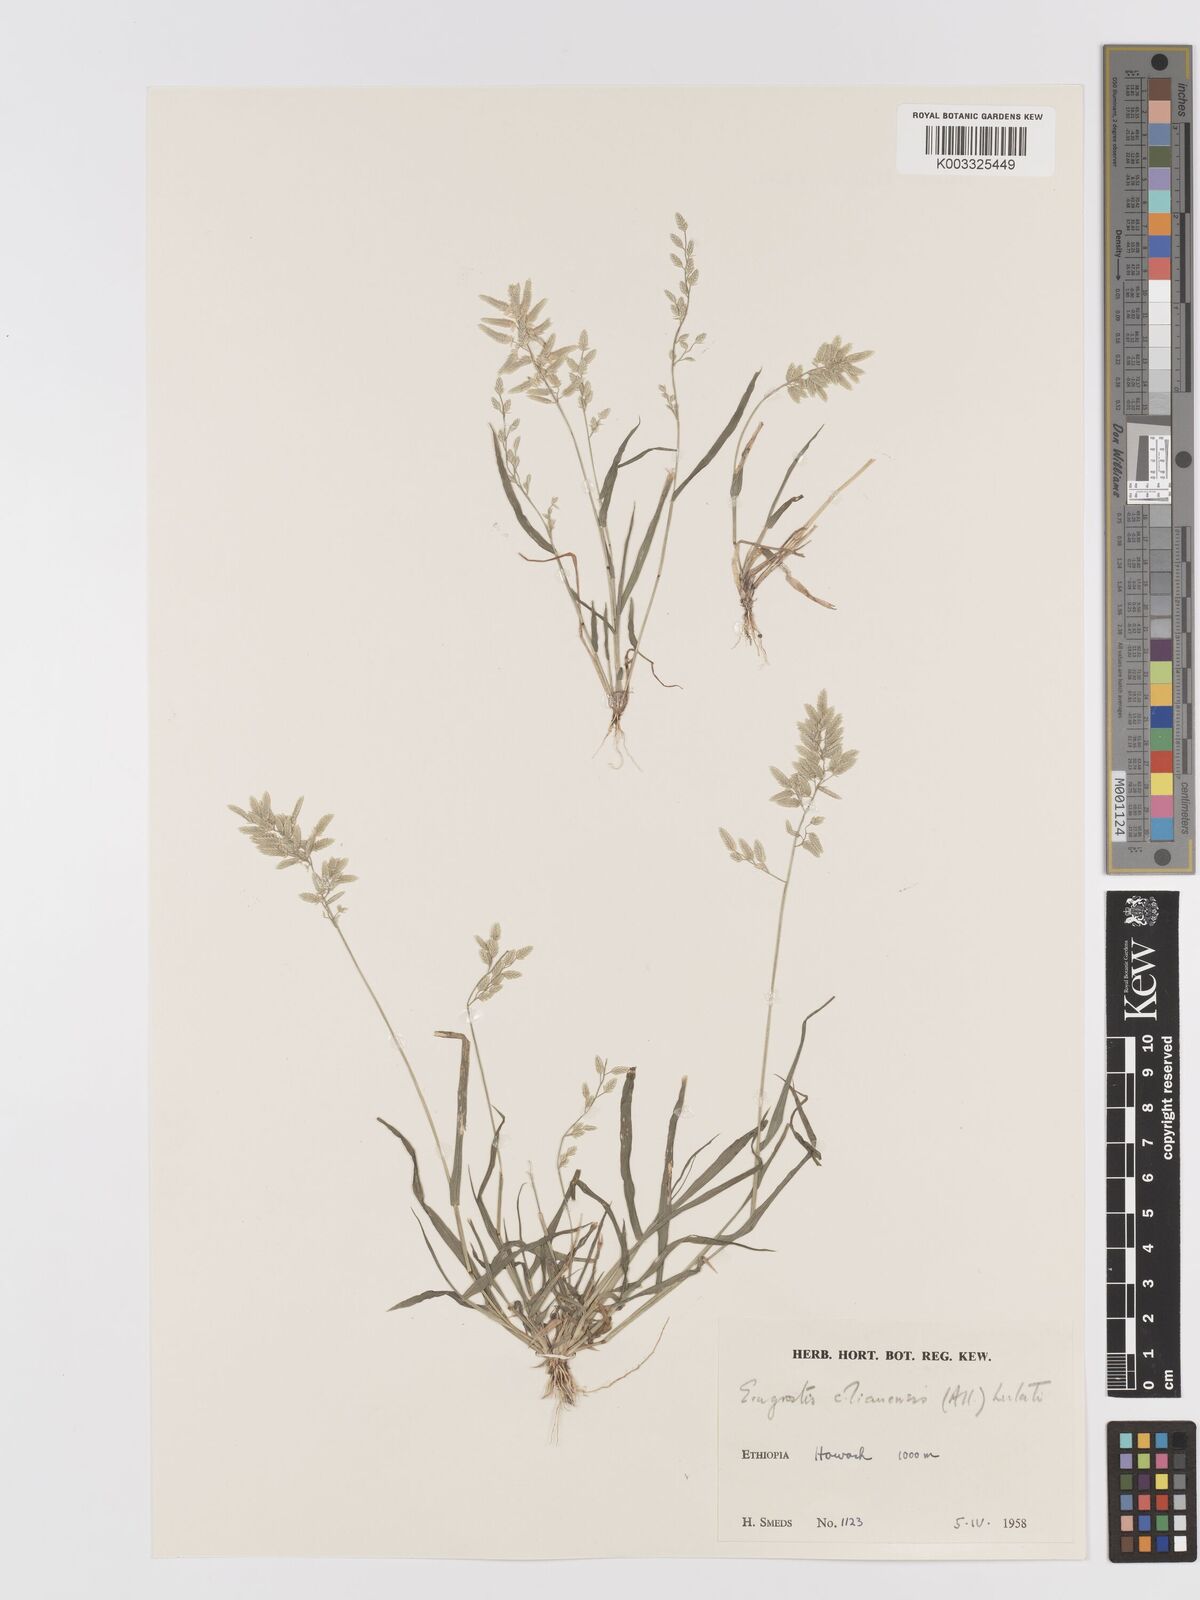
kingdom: Plantae
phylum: Tracheophyta
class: Liliopsida
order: Poales
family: Poaceae
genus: Eragrostis
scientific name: Eragrostis cilianensis
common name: Stinkgrass
